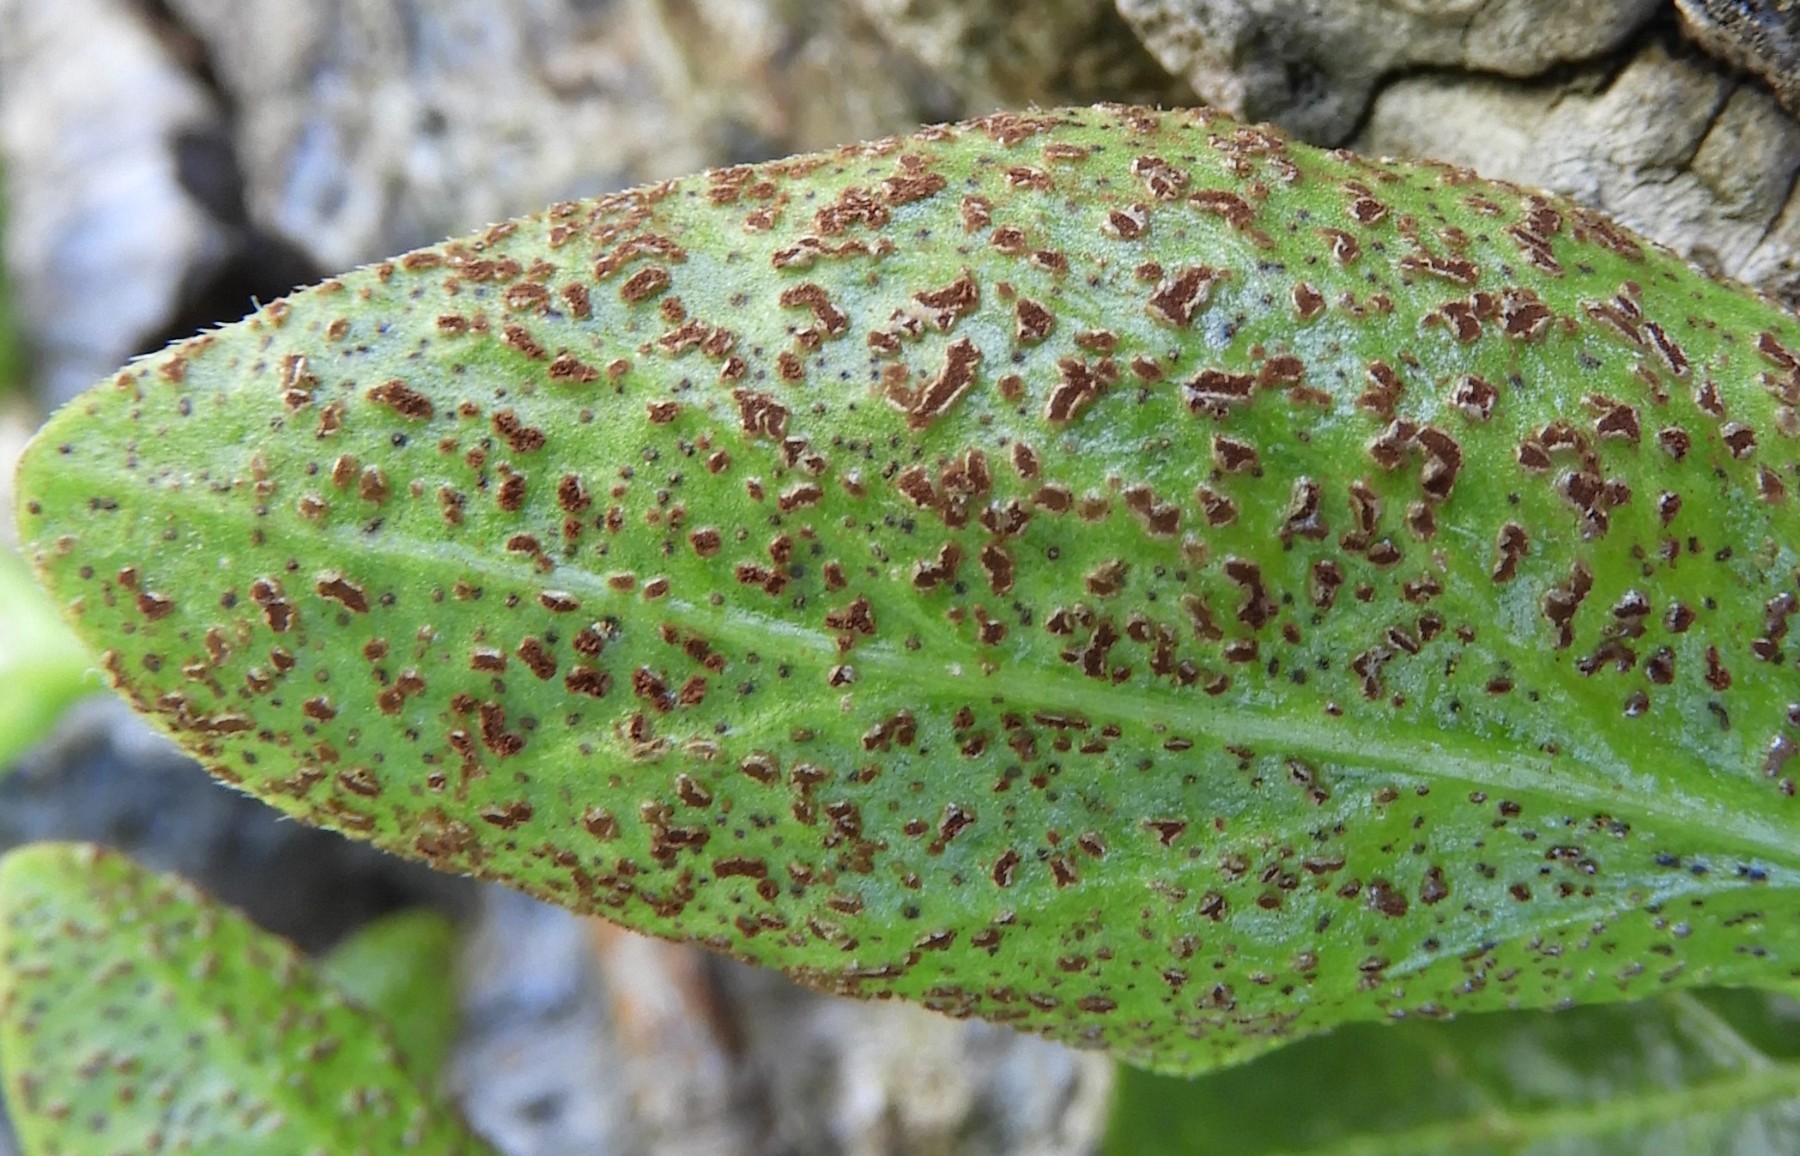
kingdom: Fungi
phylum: Basidiomycota
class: Pucciniomycetes
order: Pucciniales
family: Pucciniaceae
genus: Puccinia
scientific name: Puccinia vincae
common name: Periwinkle rust
